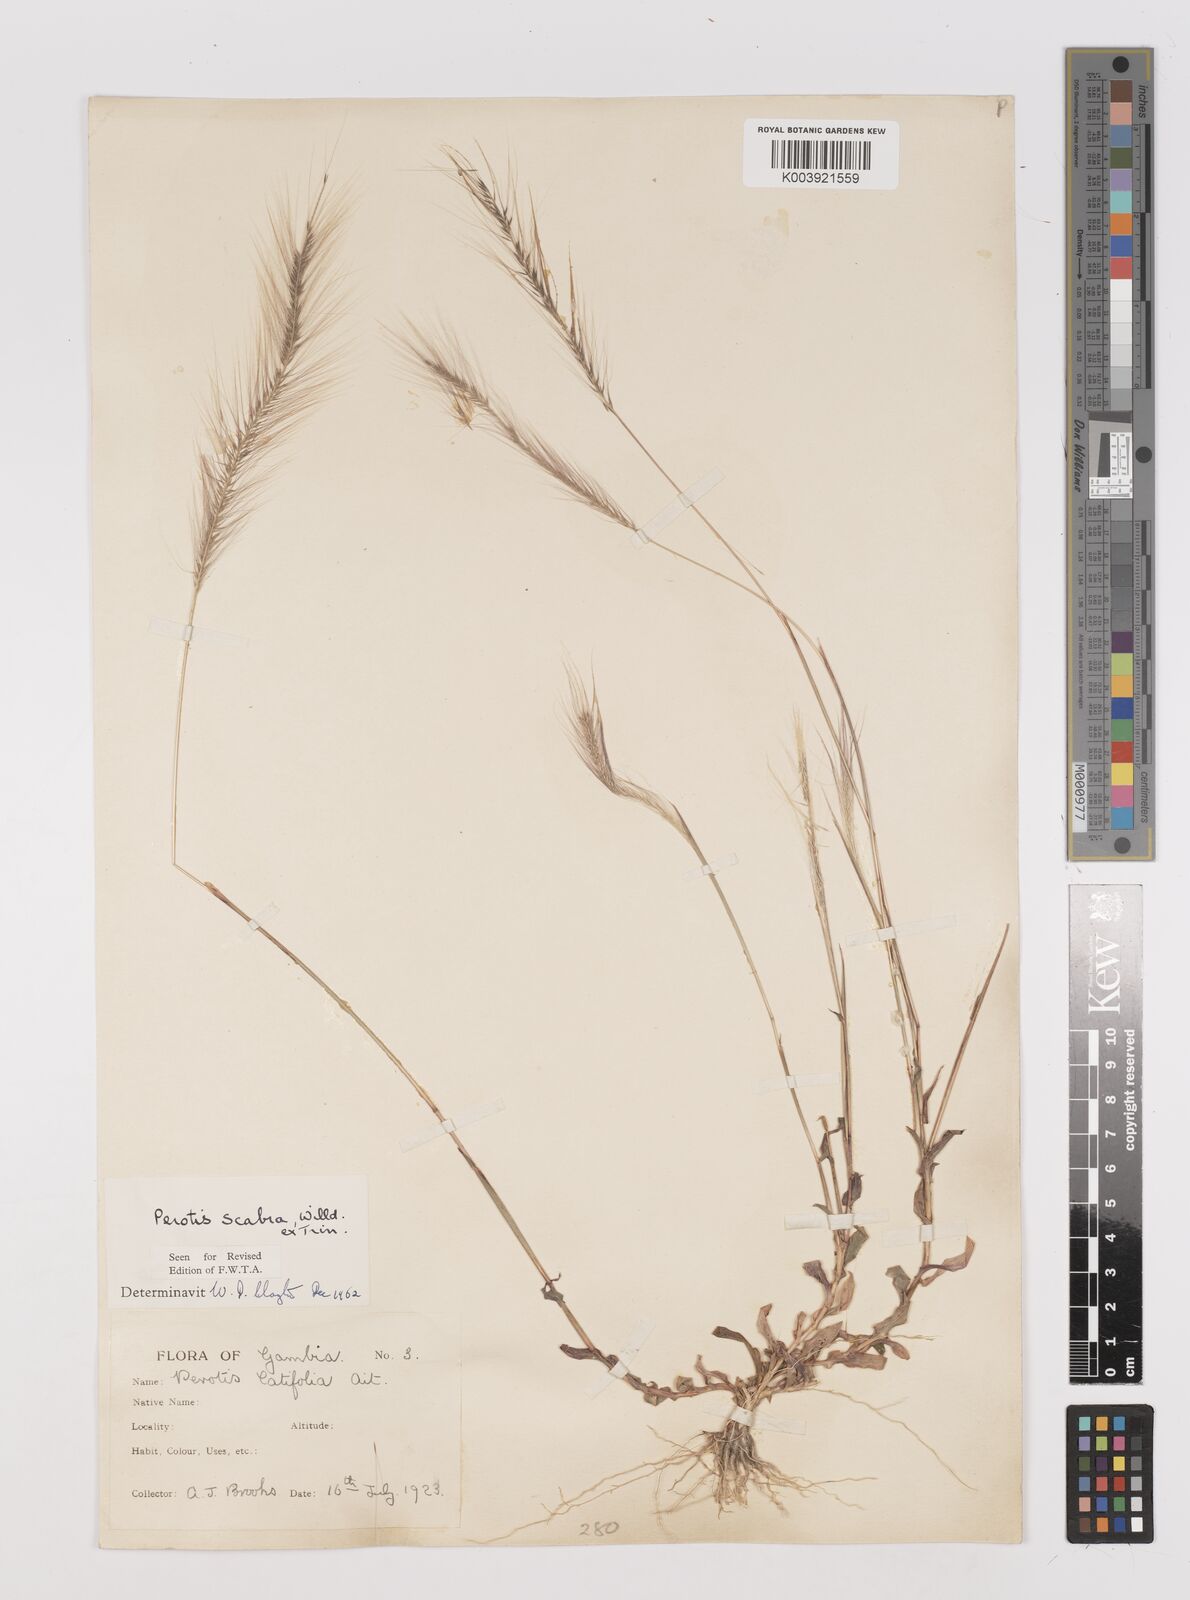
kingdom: Plantae
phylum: Tracheophyta
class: Liliopsida
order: Poales
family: Poaceae
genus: Perotis
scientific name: Perotis scabra
